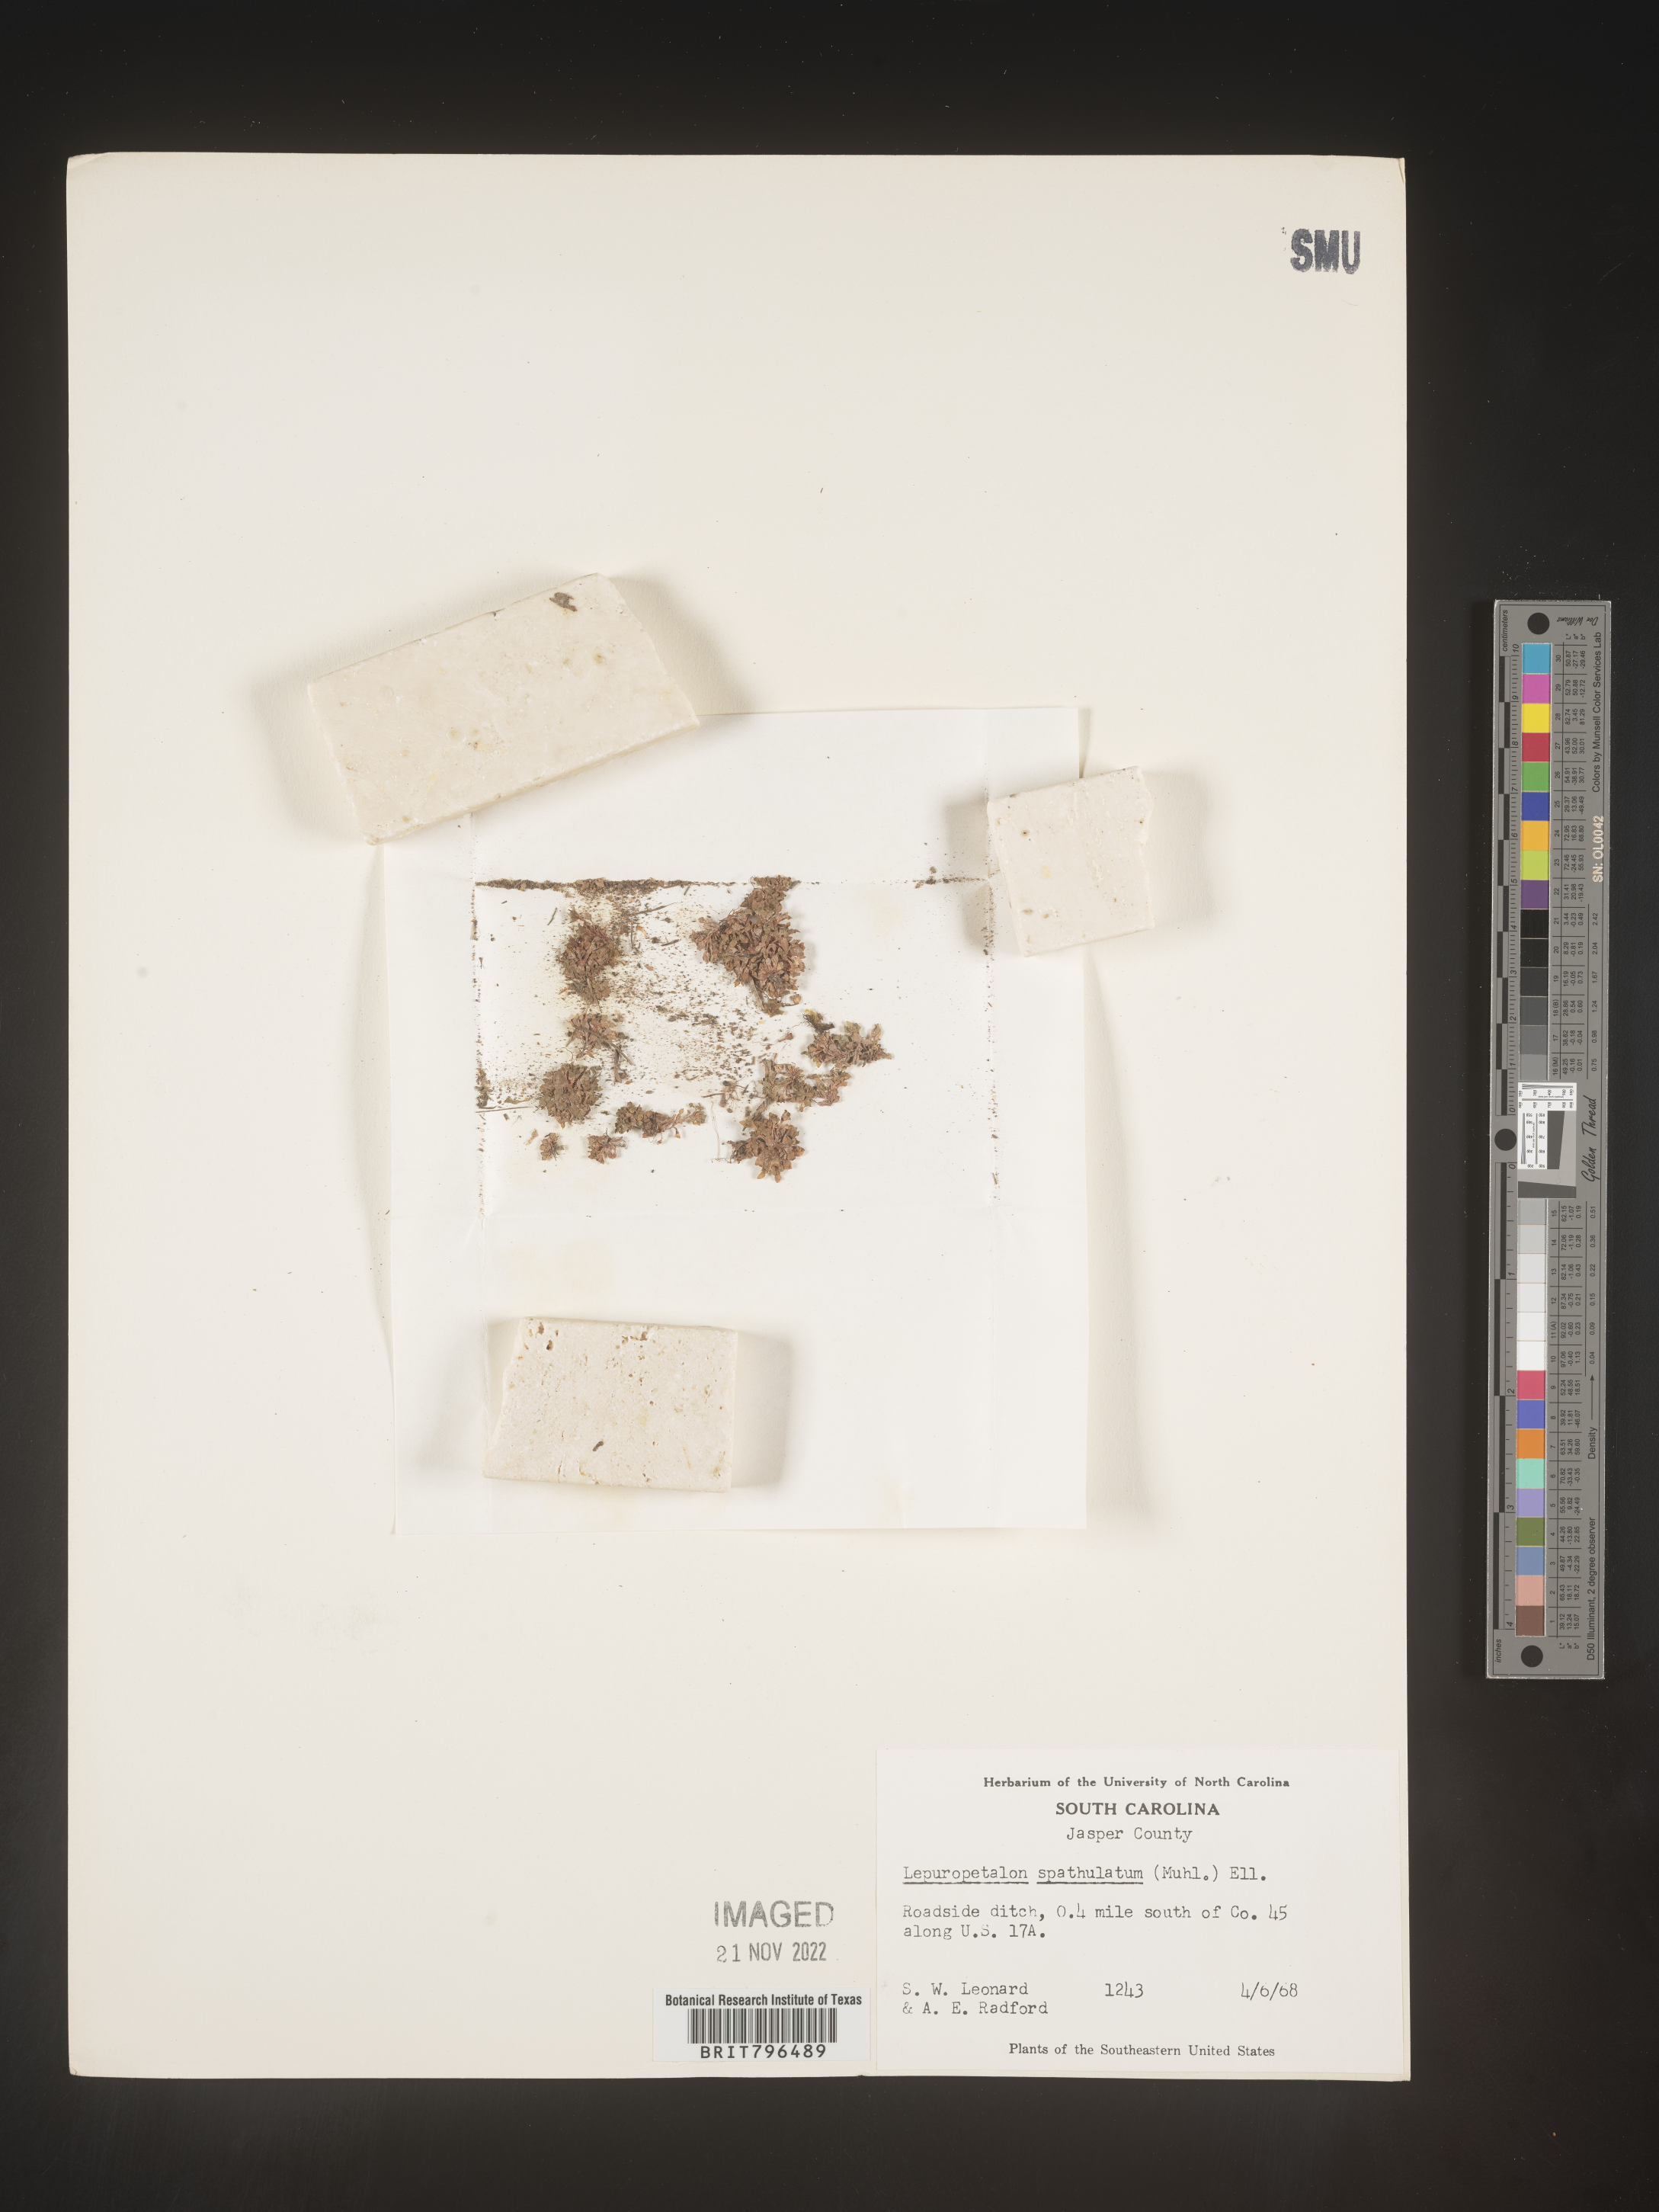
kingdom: Plantae
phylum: Tracheophyta
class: Magnoliopsida
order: Celastrales
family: Parnassiaceae
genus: Lepuropetalon
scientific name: Lepuropetalon
